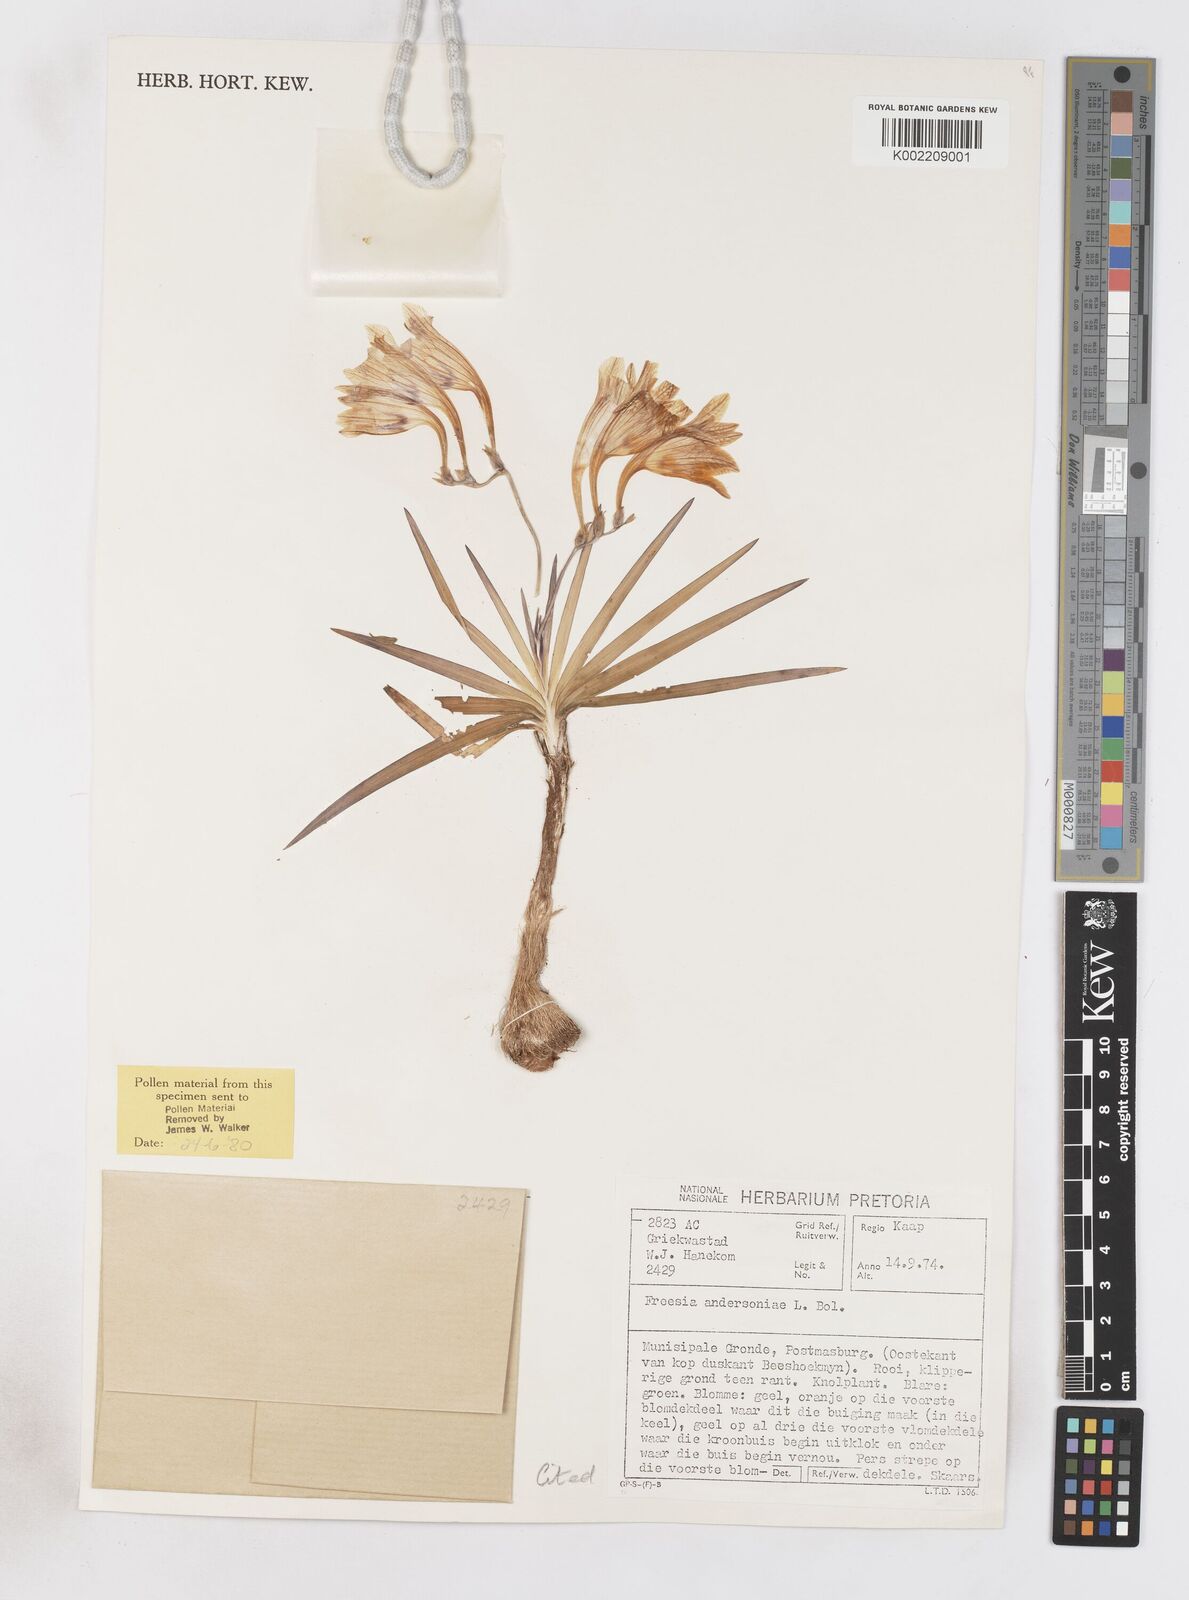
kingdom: Plantae
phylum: Tracheophyta
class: Liliopsida
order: Asparagales
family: Iridaceae
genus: Freesia
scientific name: Freesia andersoniae
